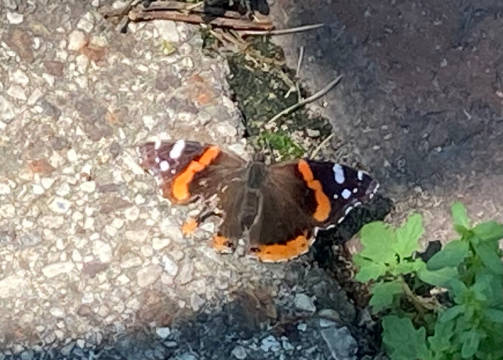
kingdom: Animalia
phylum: Arthropoda
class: Insecta
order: Lepidoptera
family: Nymphalidae
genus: Vanessa
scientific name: Vanessa atalanta
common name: Red Admiral
